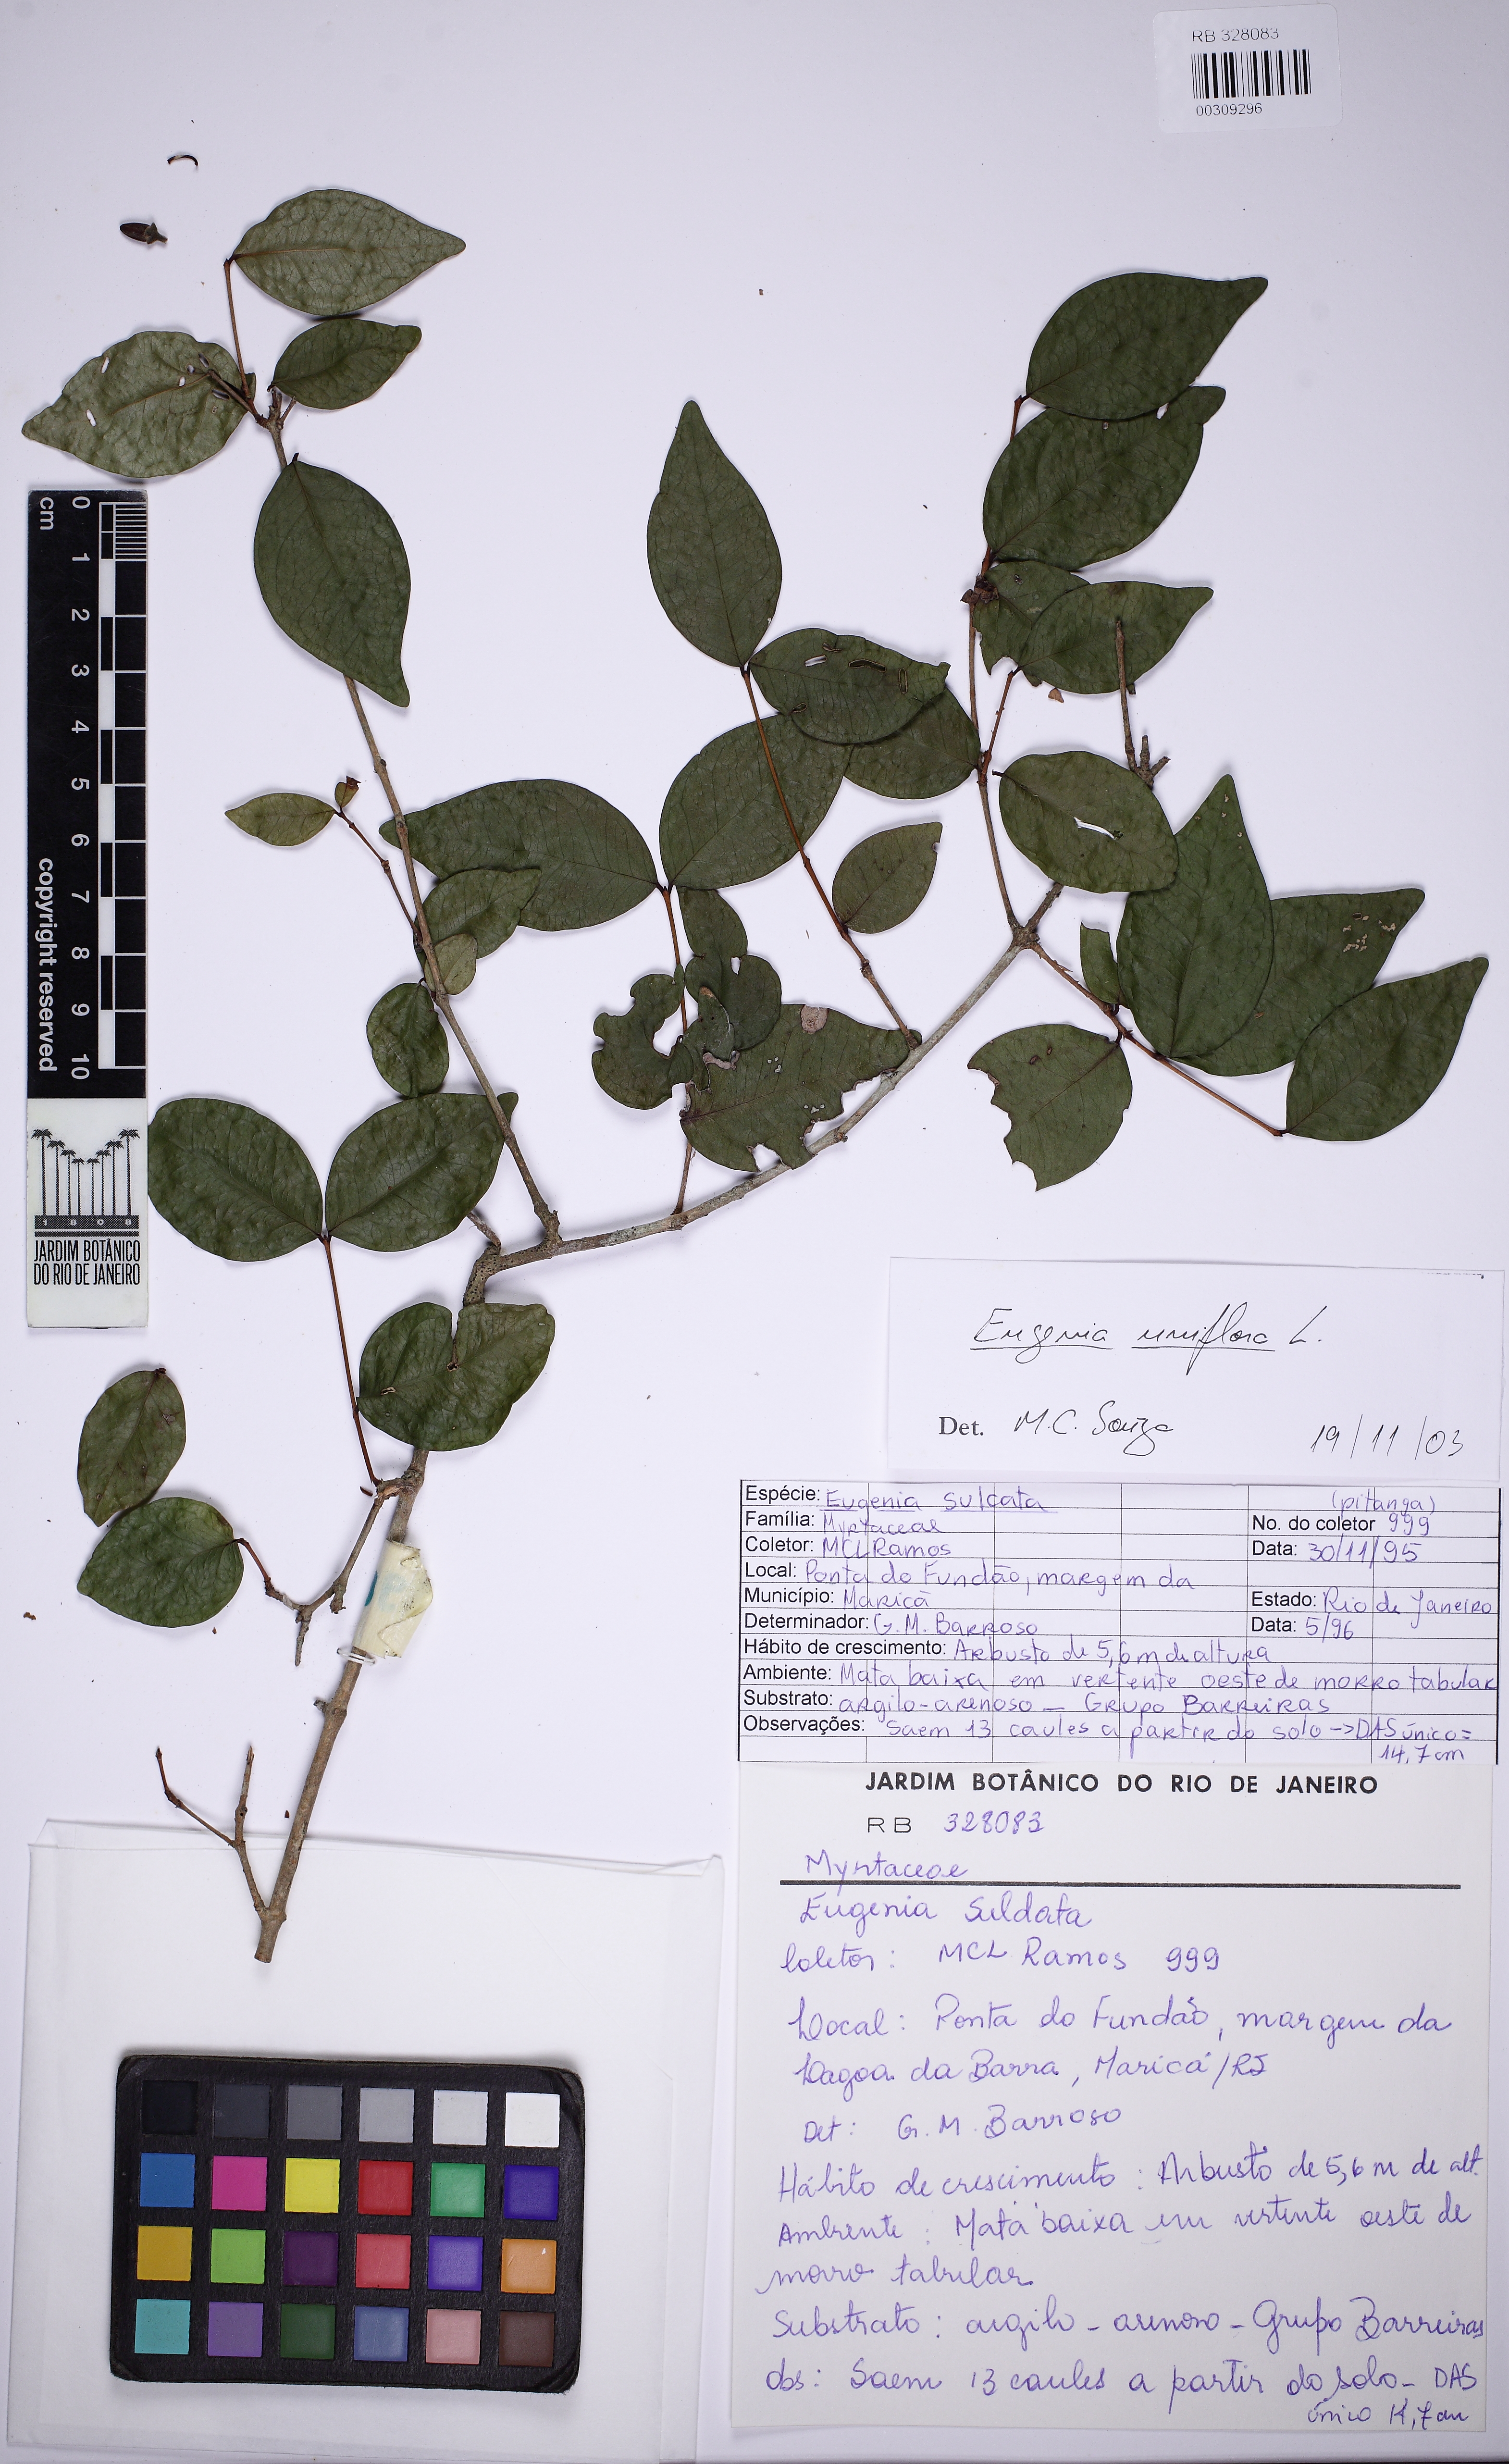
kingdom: Plantae
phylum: Tracheophyta
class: Magnoliopsida
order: Myrtales
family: Myrtaceae
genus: Eugenia
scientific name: Eugenia uniflora
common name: Surinam cherry
